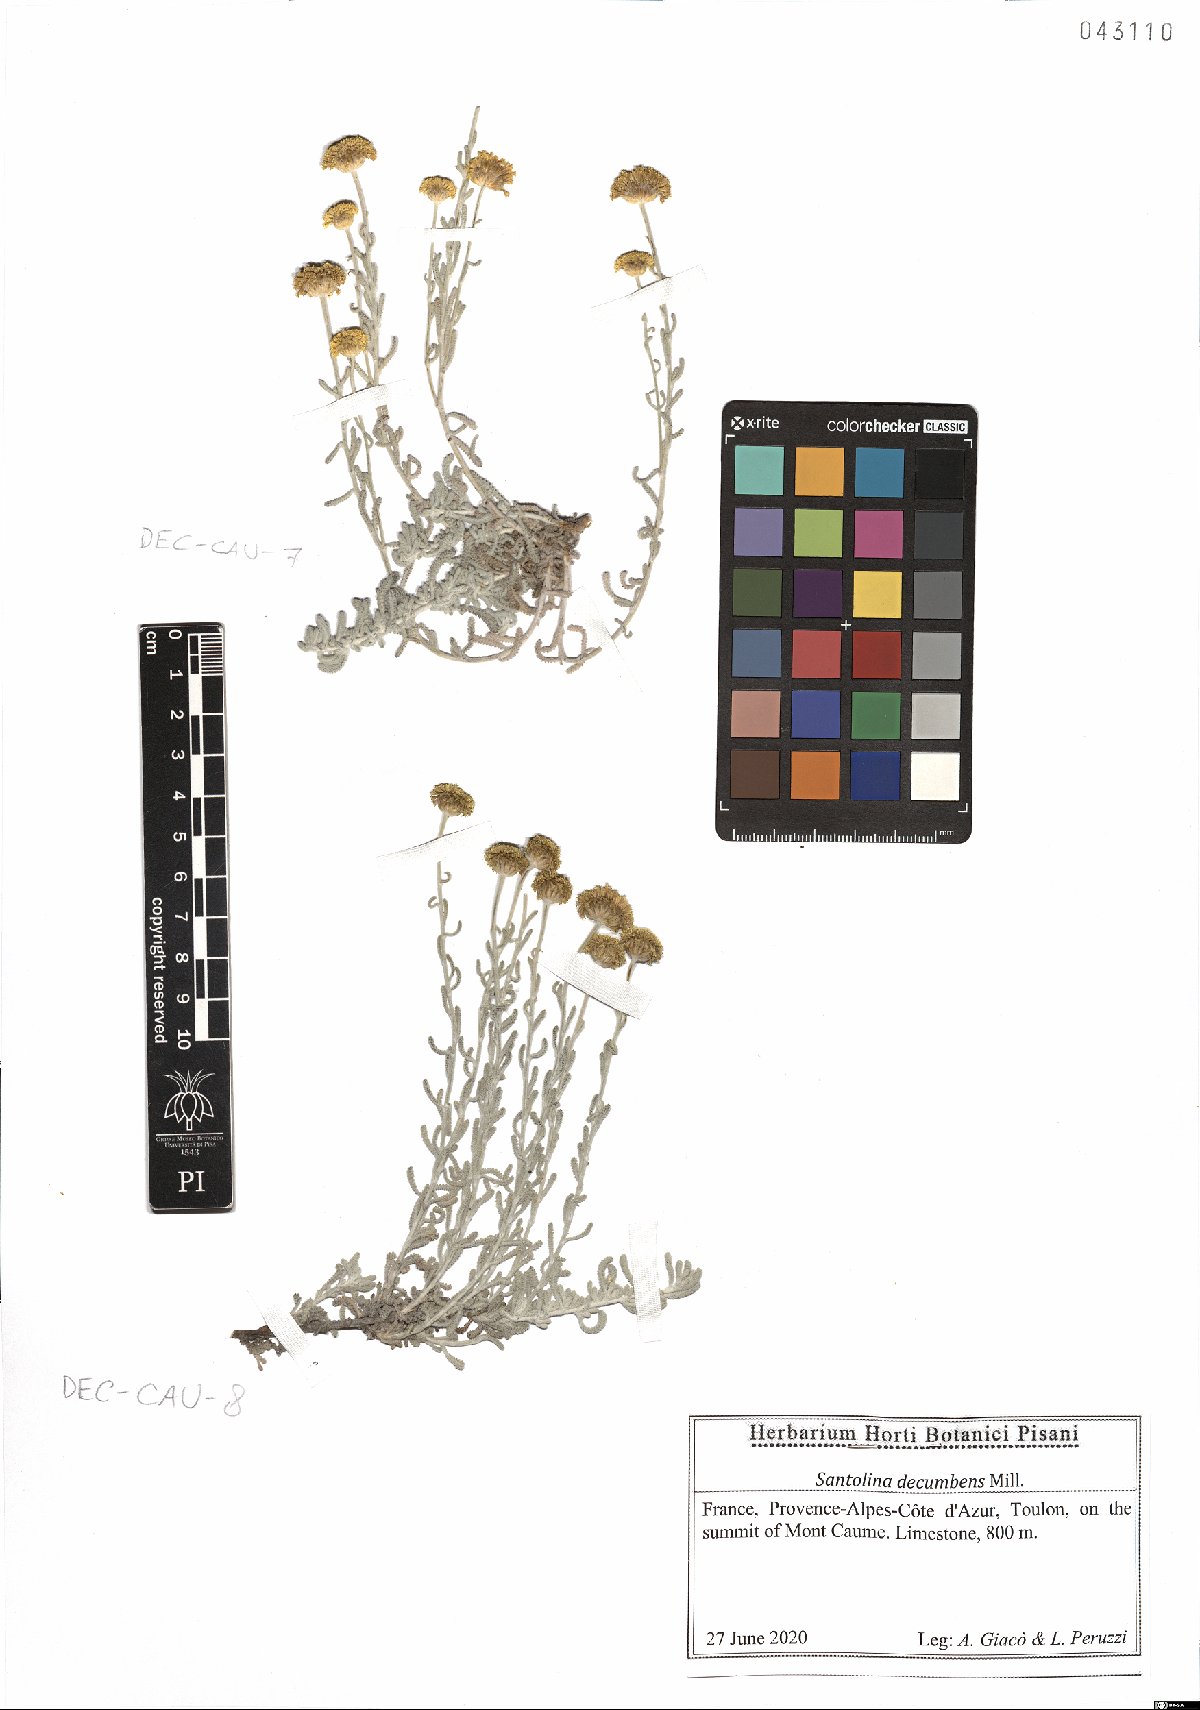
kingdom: Plantae
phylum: Tracheophyta
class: Magnoliopsida
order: Asterales
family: Asteraceae
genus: Santolina
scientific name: Santolina decumbens
